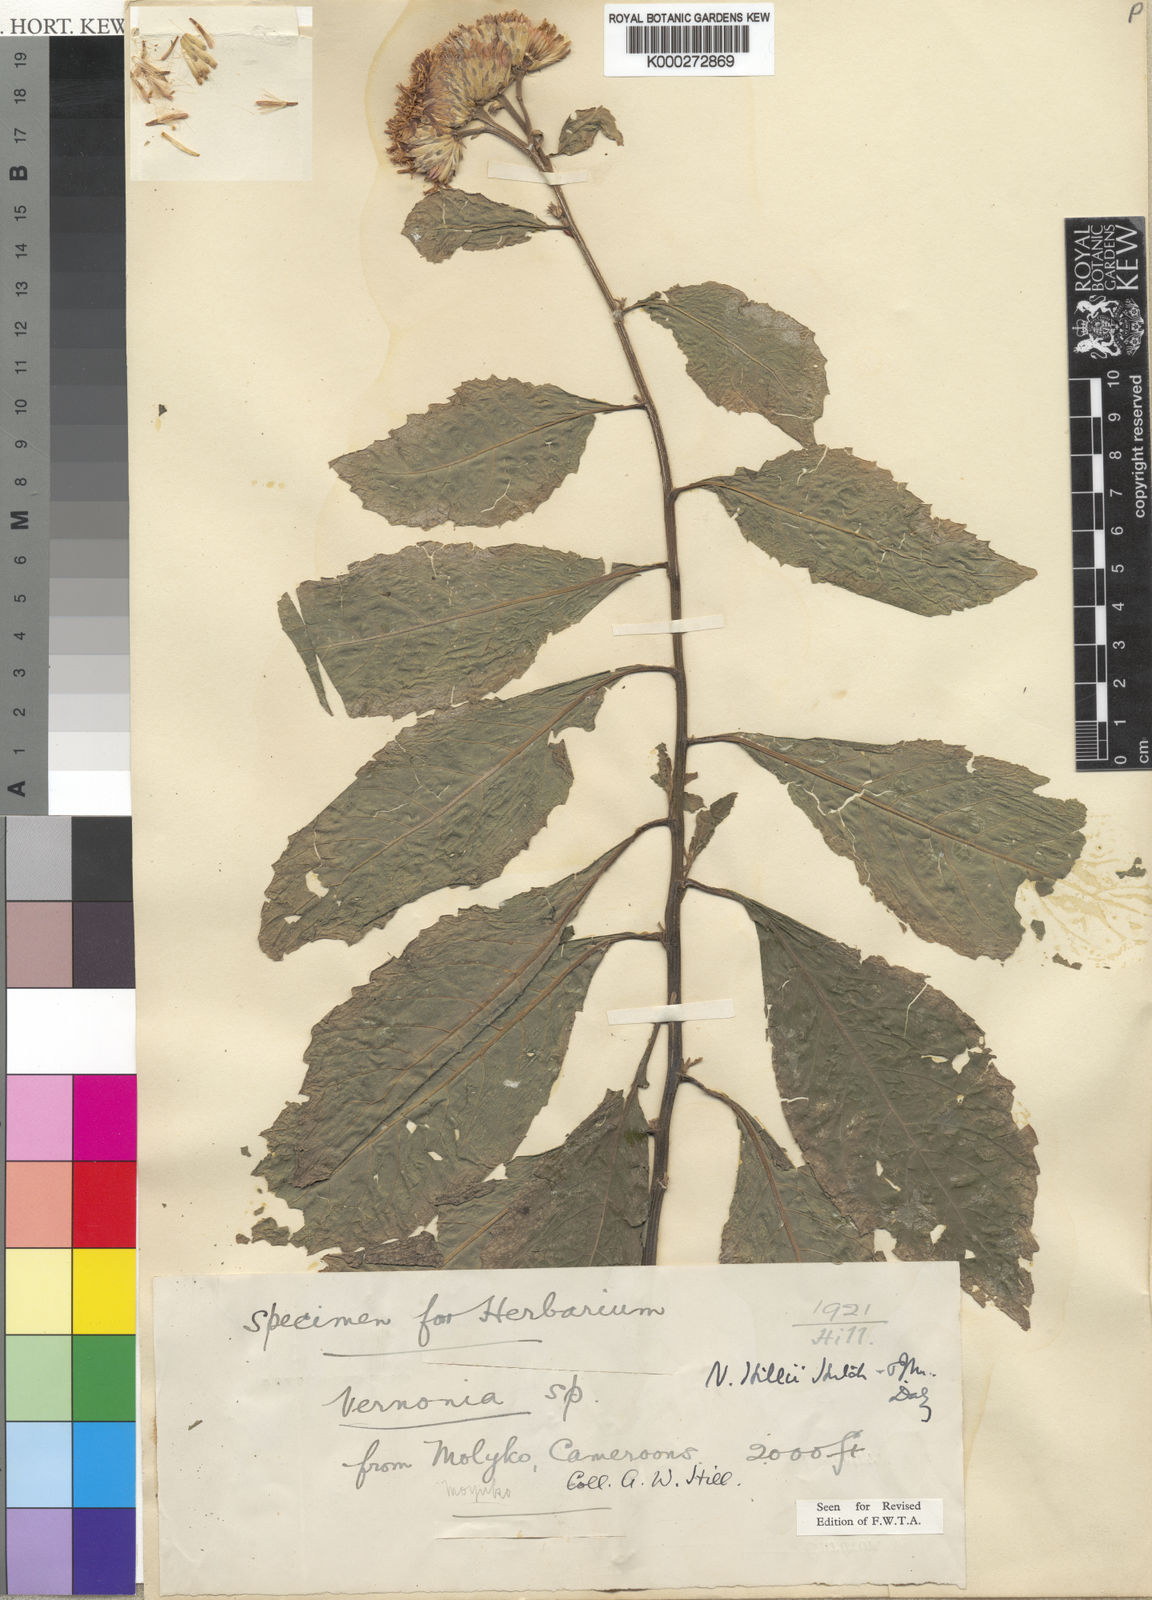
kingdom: Plantae
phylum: Tracheophyta
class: Magnoliopsida
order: Asterales
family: Asteraceae
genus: Vernonia
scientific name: Vernonia
